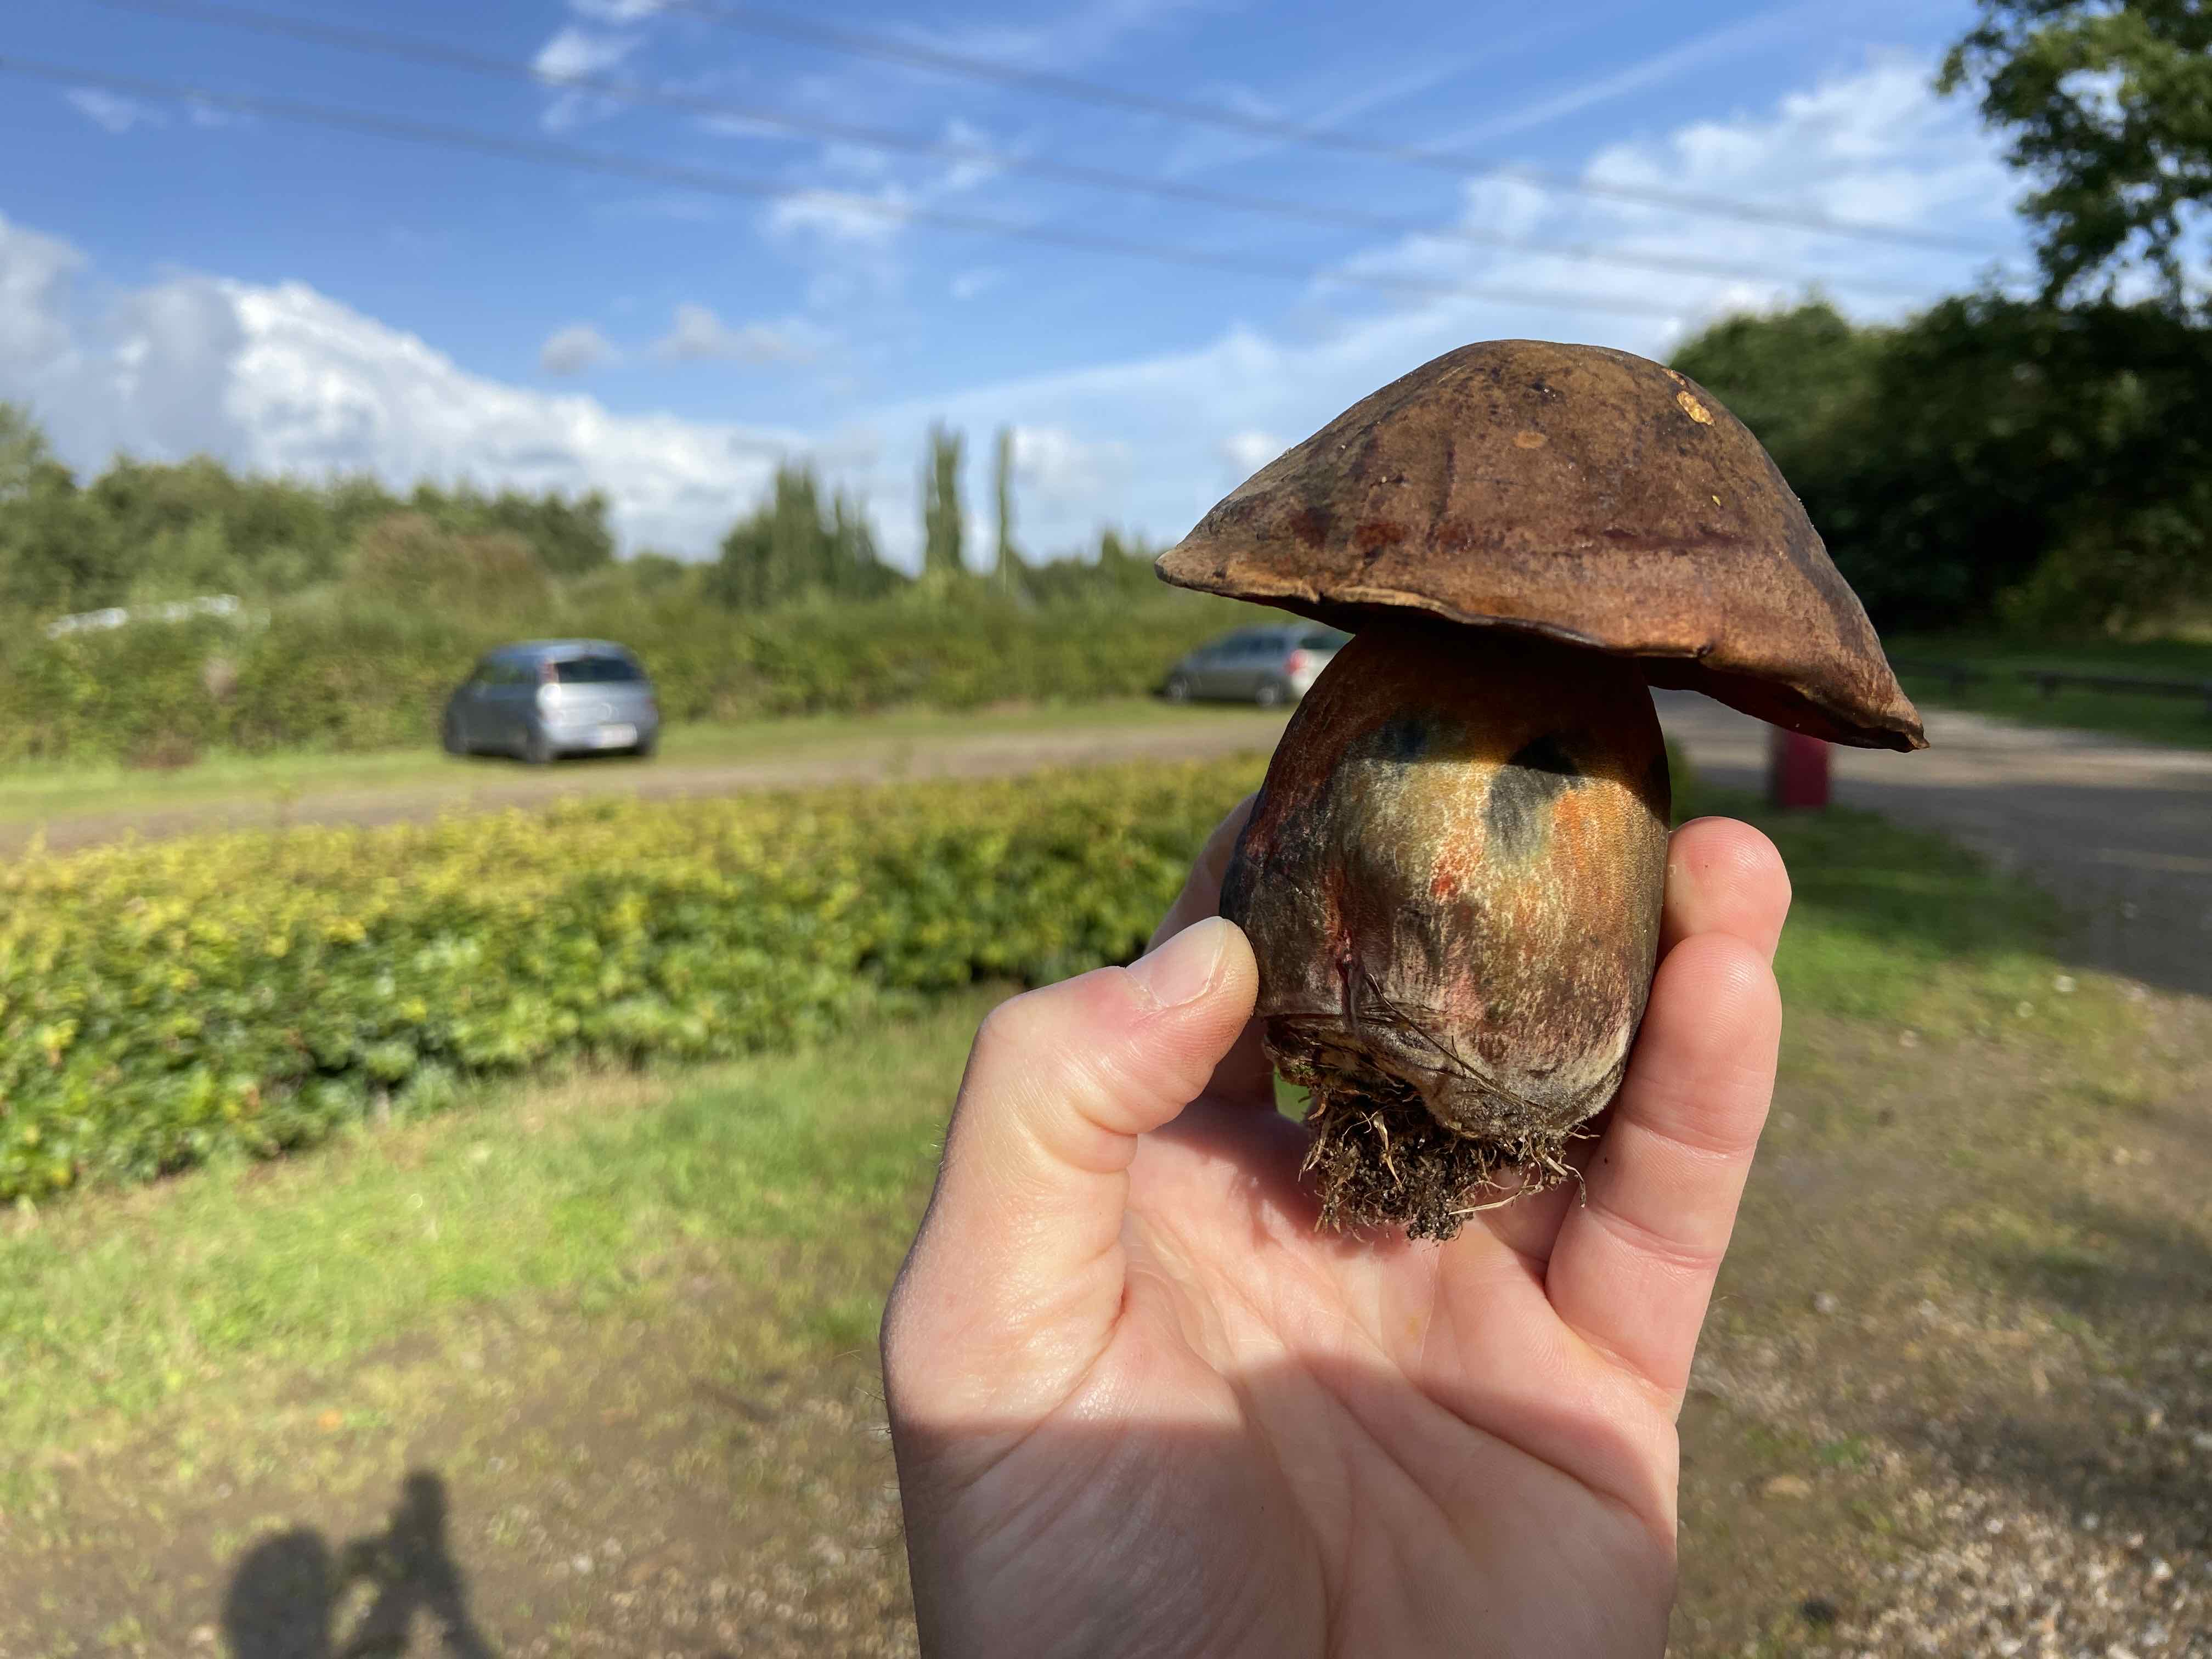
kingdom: Fungi
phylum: Basidiomycota
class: Agaricomycetes
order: Boletales
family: Boletaceae
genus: Neoboletus
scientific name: Neoboletus erythropus
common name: punktstokket indigorørhat
